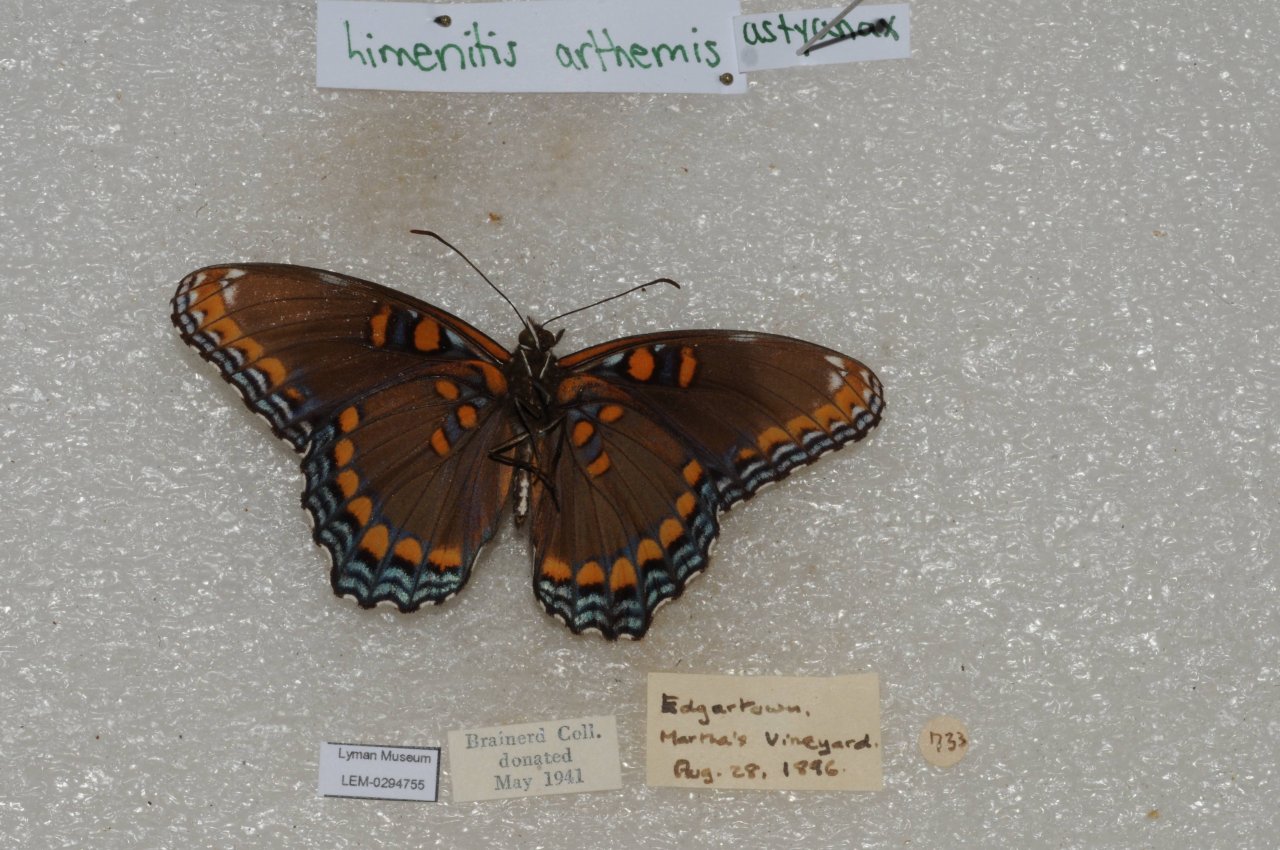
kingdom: Animalia
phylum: Arthropoda
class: Insecta
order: Lepidoptera
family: Nymphalidae
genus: Limenitis
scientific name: Limenitis astyanax
